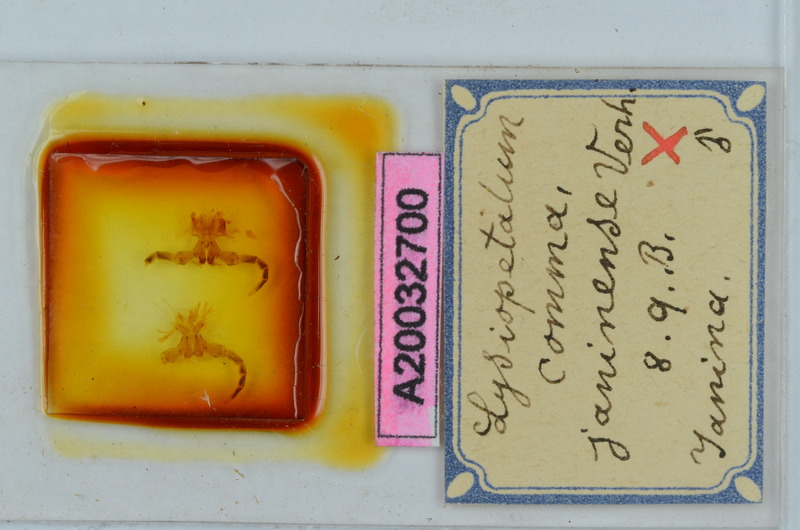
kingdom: Animalia
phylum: Arthropoda
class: Diplopoda
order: Callipodida
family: Schizopetalidae
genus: Acanthopetalum
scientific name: Acanthopetalum carinatum
